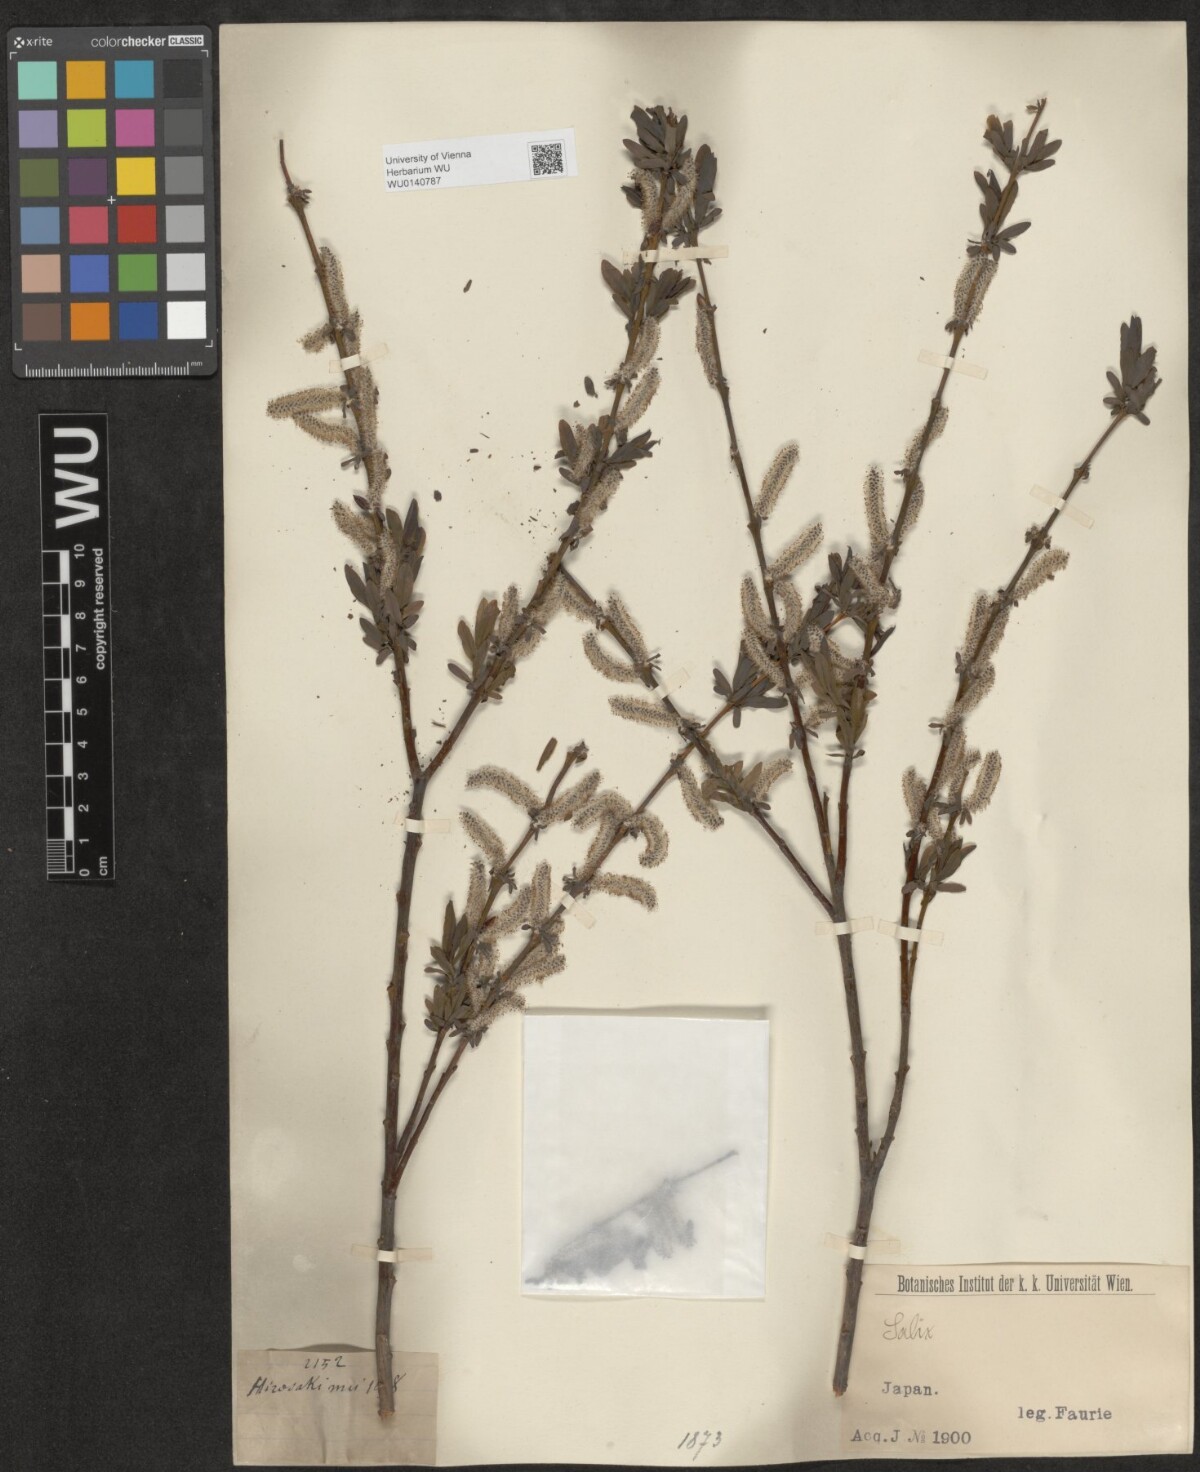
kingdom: Plantae
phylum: Tracheophyta
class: Magnoliopsida
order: Malpighiales
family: Salicaceae
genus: Salix
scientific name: Salix
